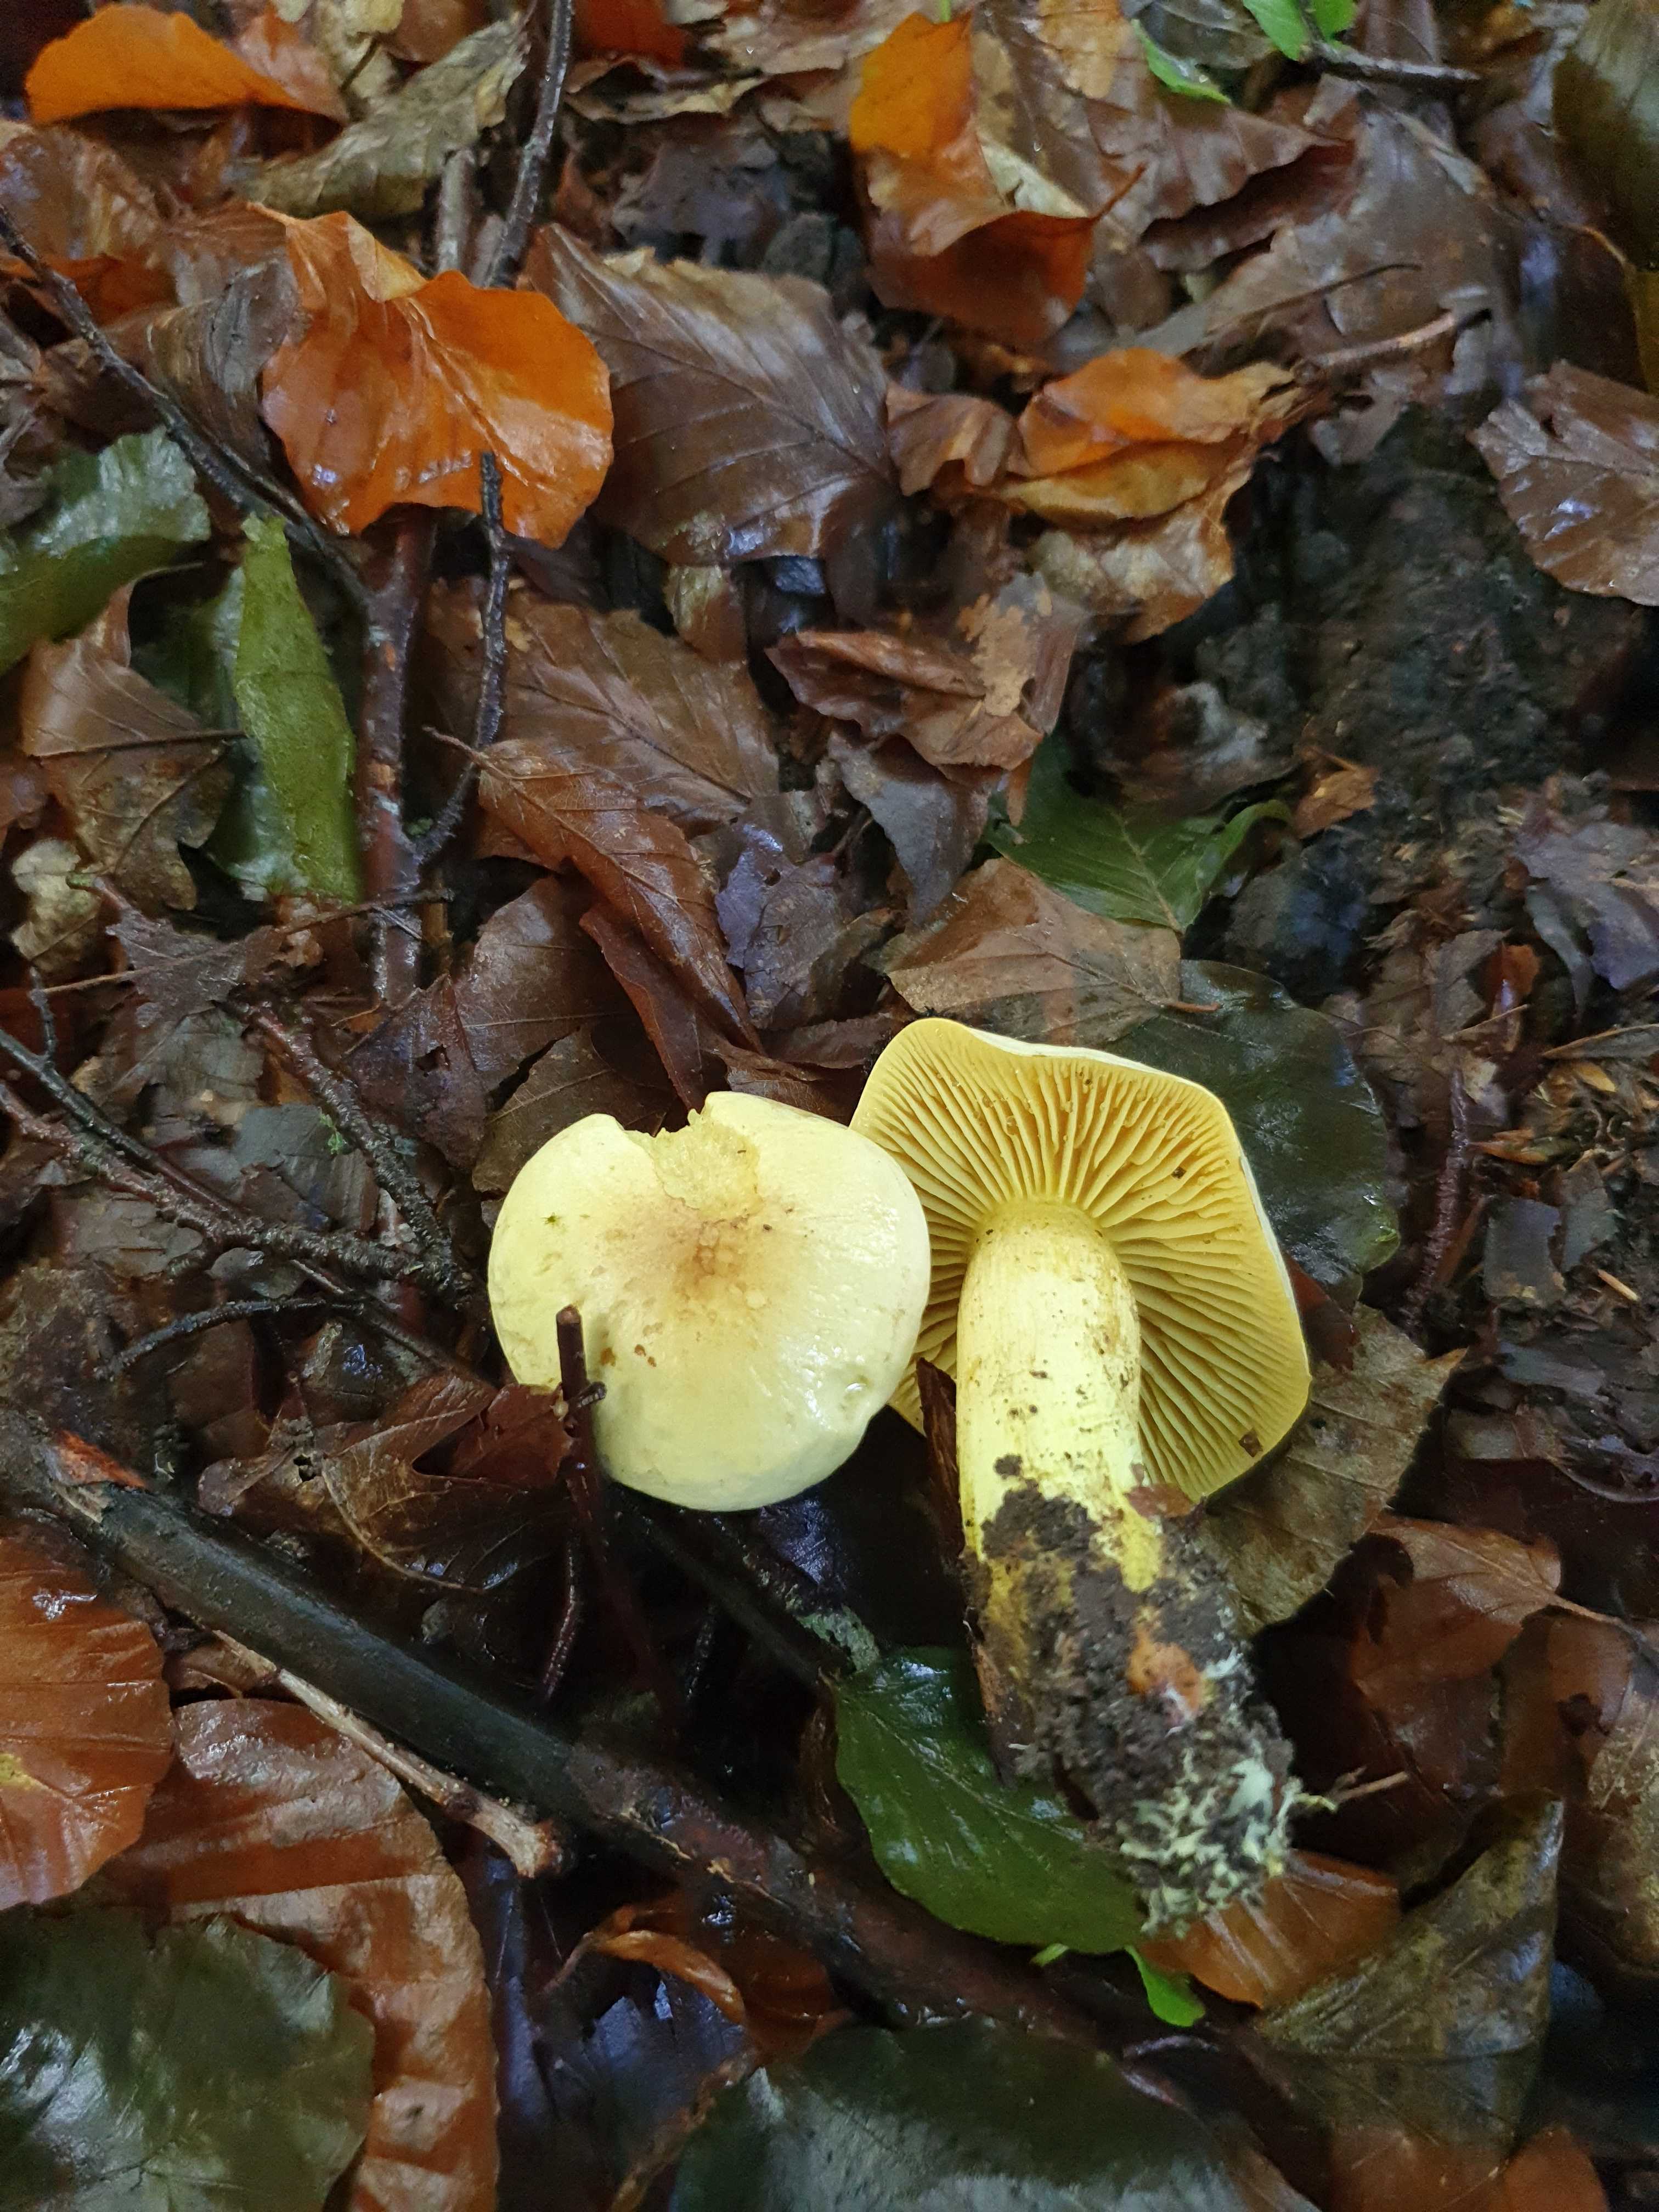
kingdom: Fungi
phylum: Basidiomycota
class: Agaricomycetes
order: Agaricales
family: Tricholomataceae
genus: Tricholoma
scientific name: Tricholoma sulphureum
